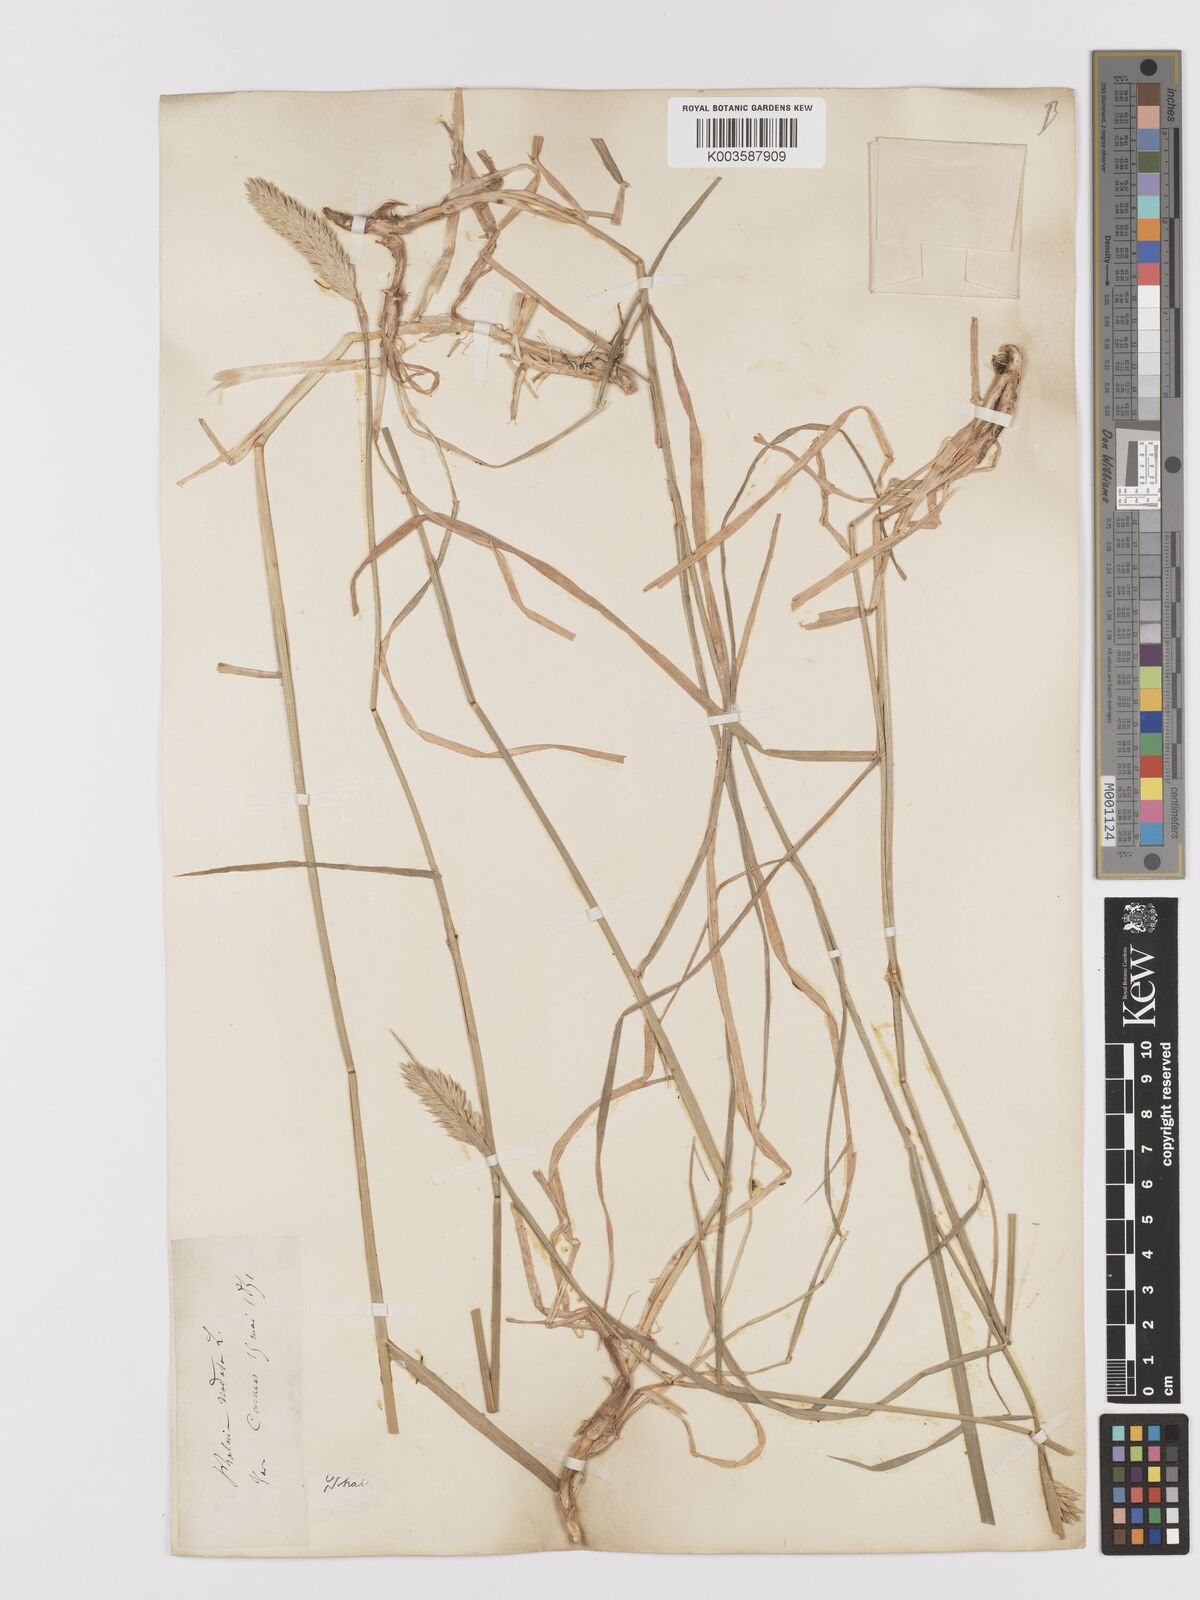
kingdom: Plantae
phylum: Tracheophyta
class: Liliopsida
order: Poales
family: Poaceae
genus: Phalaris
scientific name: Phalaris
